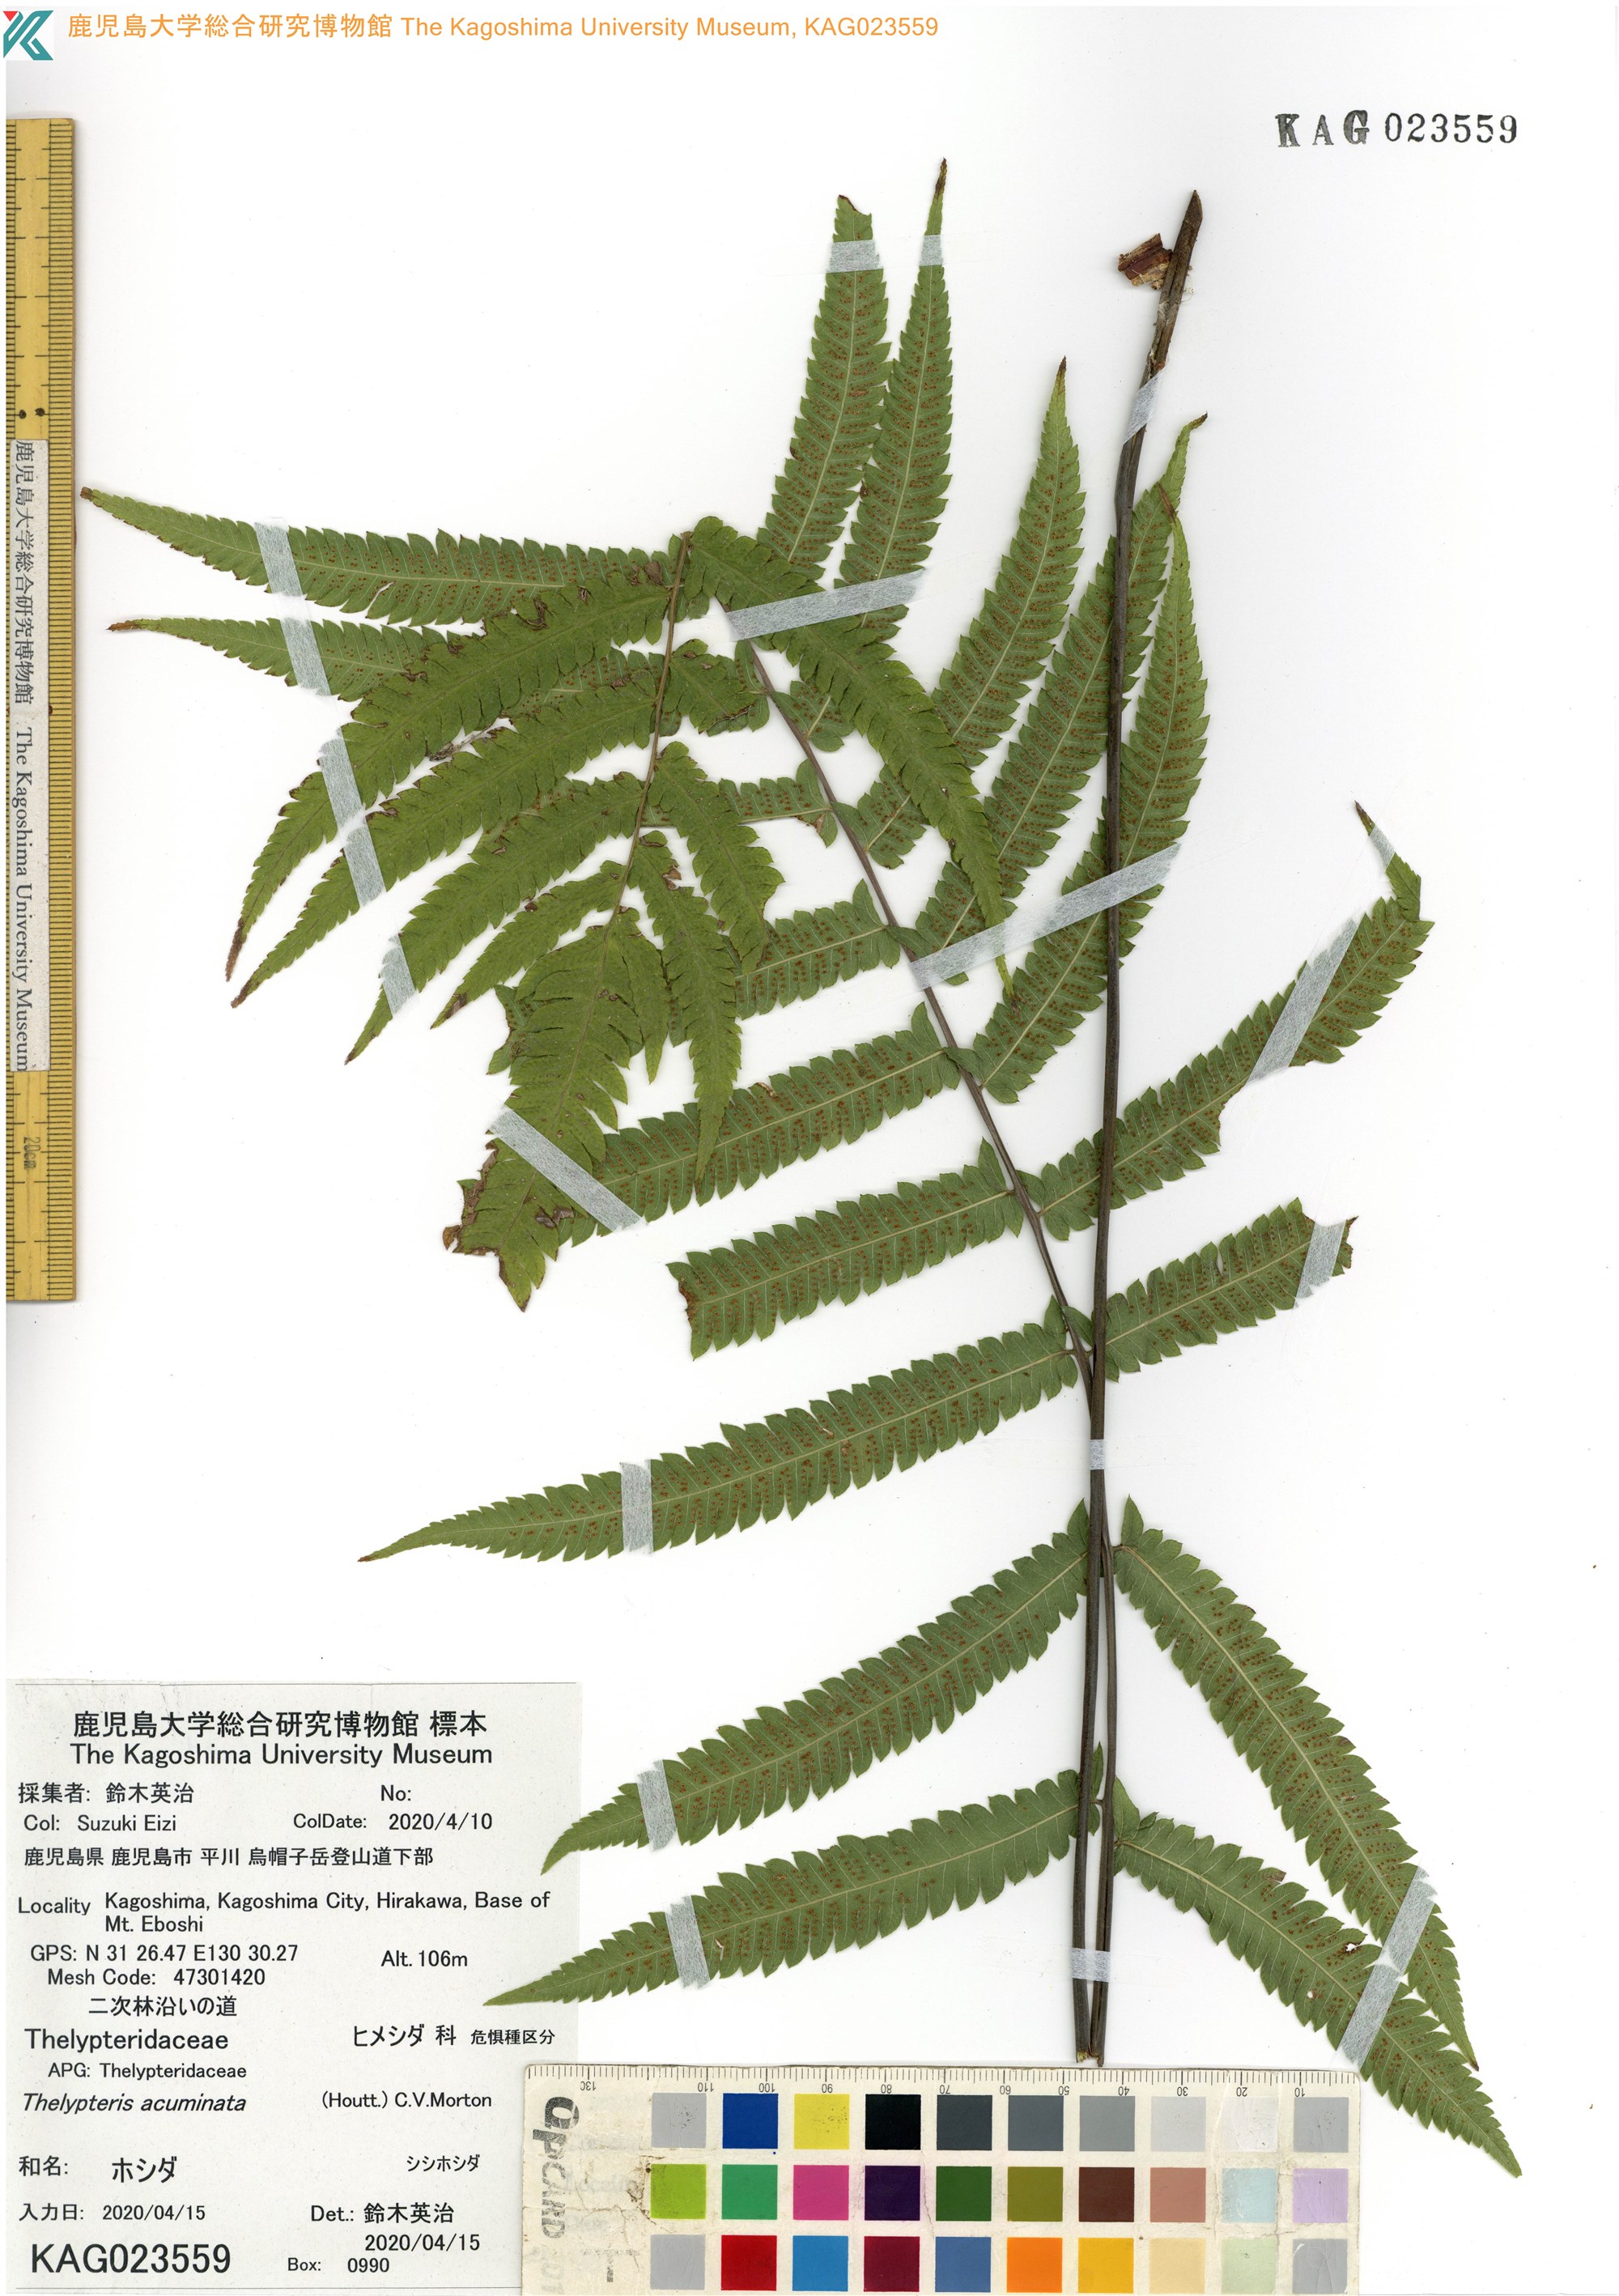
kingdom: Plantae
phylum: Tracheophyta
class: Polypodiopsida
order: Polypodiales
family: Thelypteridaceae
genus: Christella
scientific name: Christella acuminata
